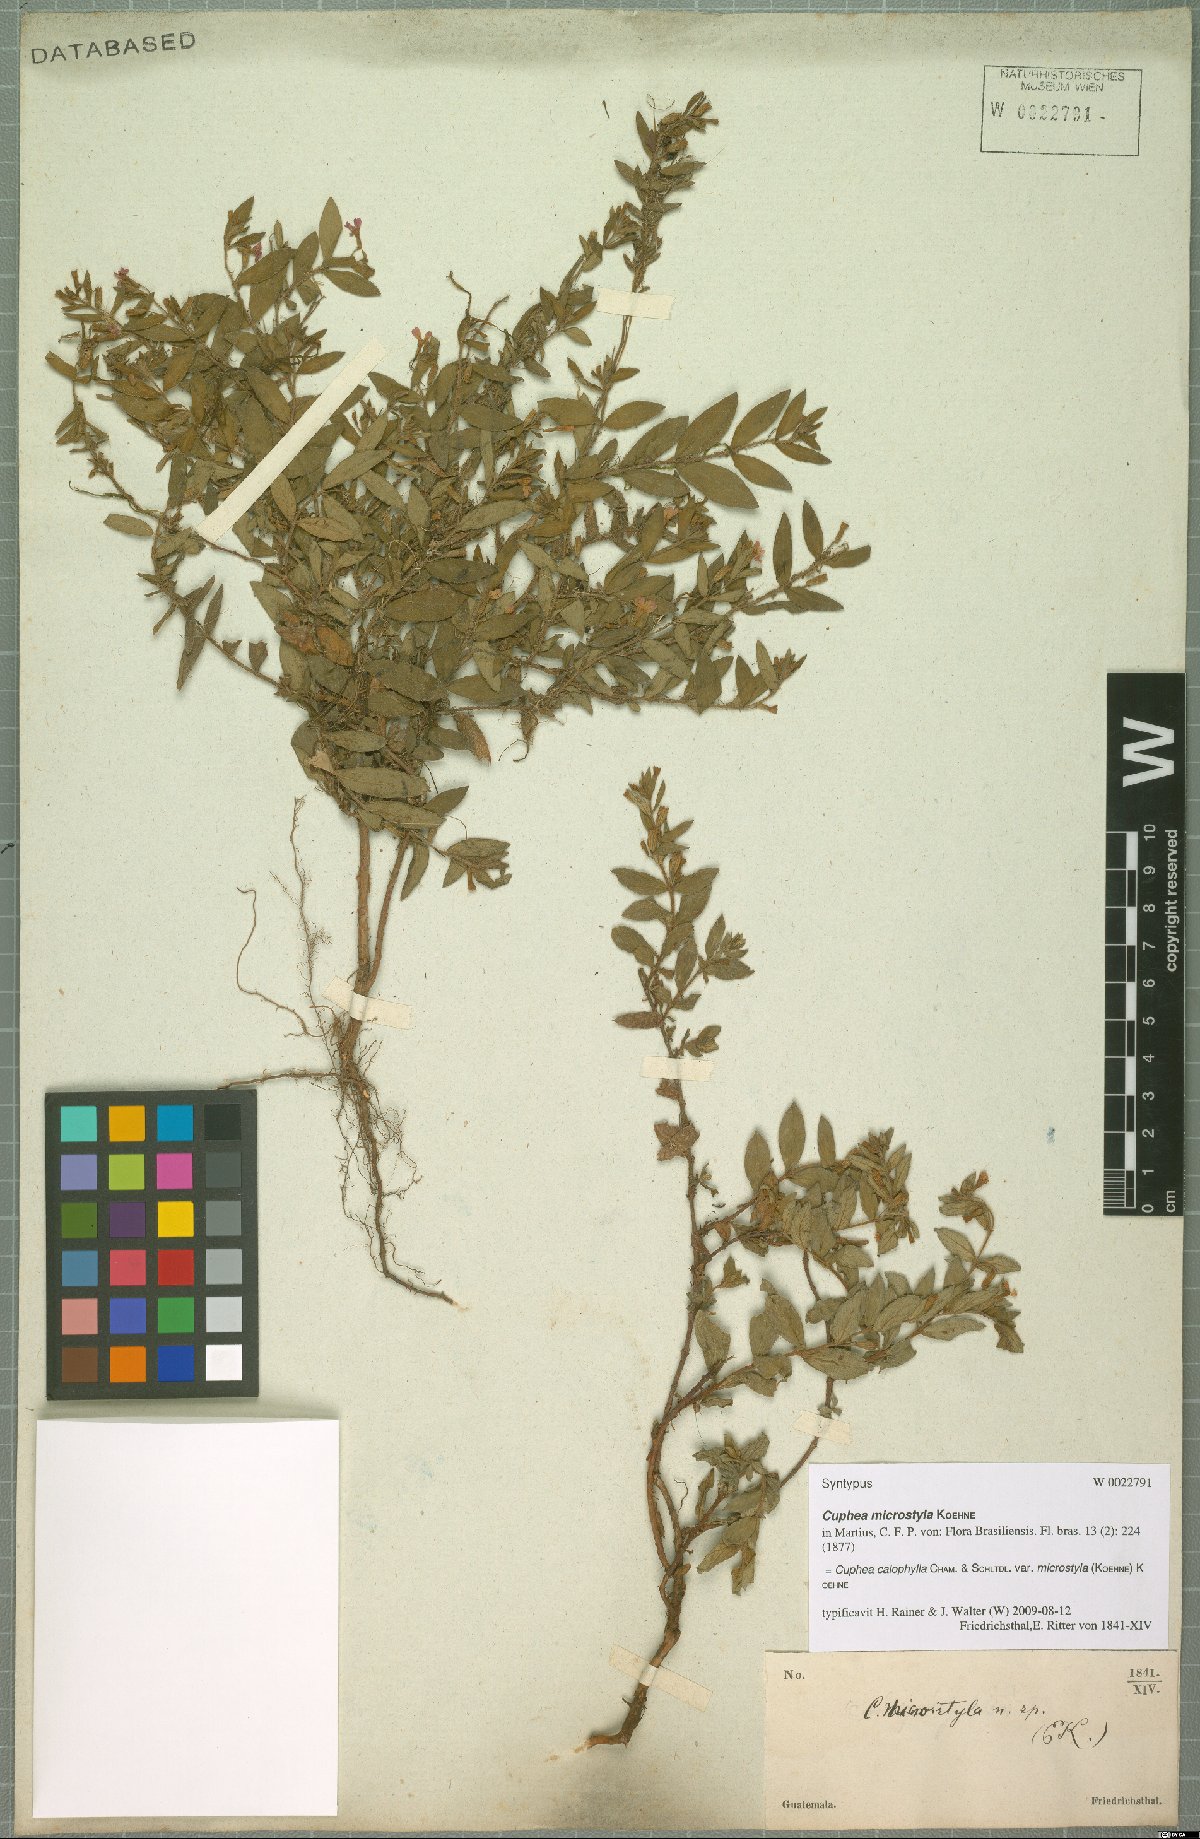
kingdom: Plantae
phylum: Tracheophyta
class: Magnoliopsida
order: Myrtales
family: Lythraceae
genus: Cuphea
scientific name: Cuphea calophylla
